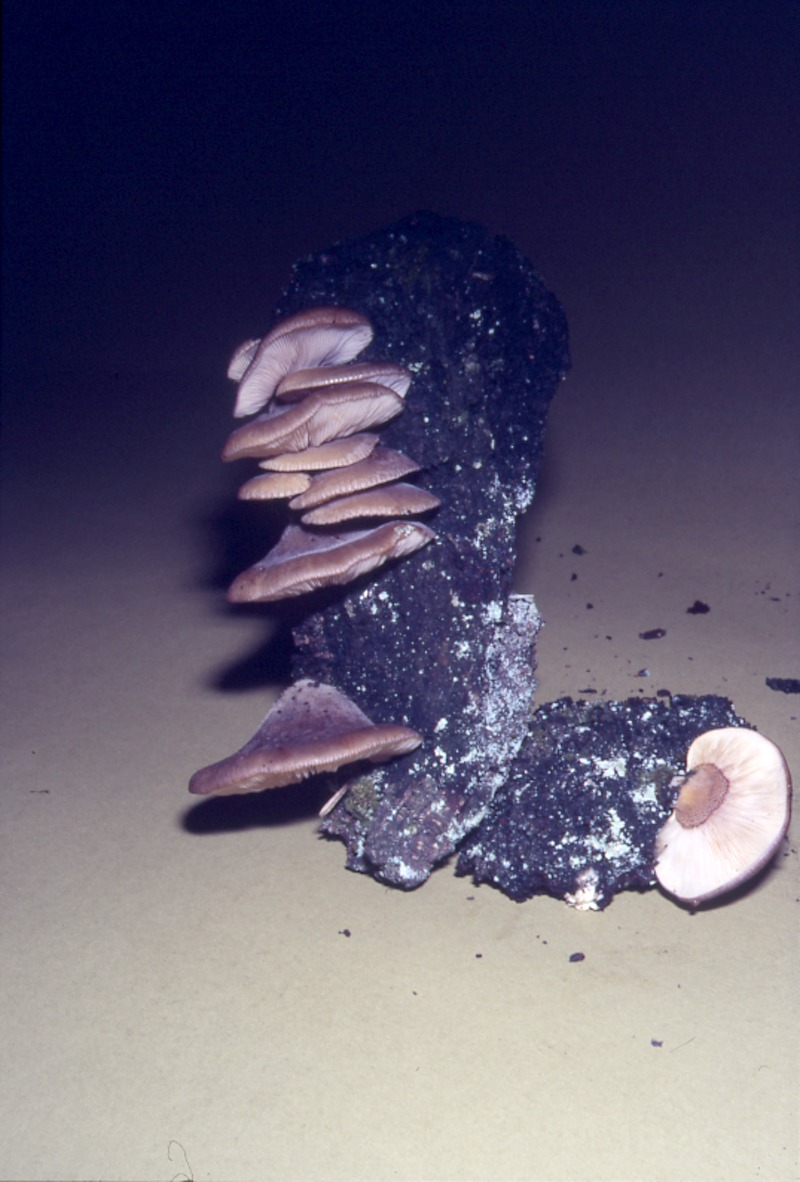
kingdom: Fungi
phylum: Basidiomycota
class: Agaricomycetes
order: Agaricales
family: Sarcomyxaceae
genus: Sarcomyxa
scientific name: Sarcomyxa serotina
